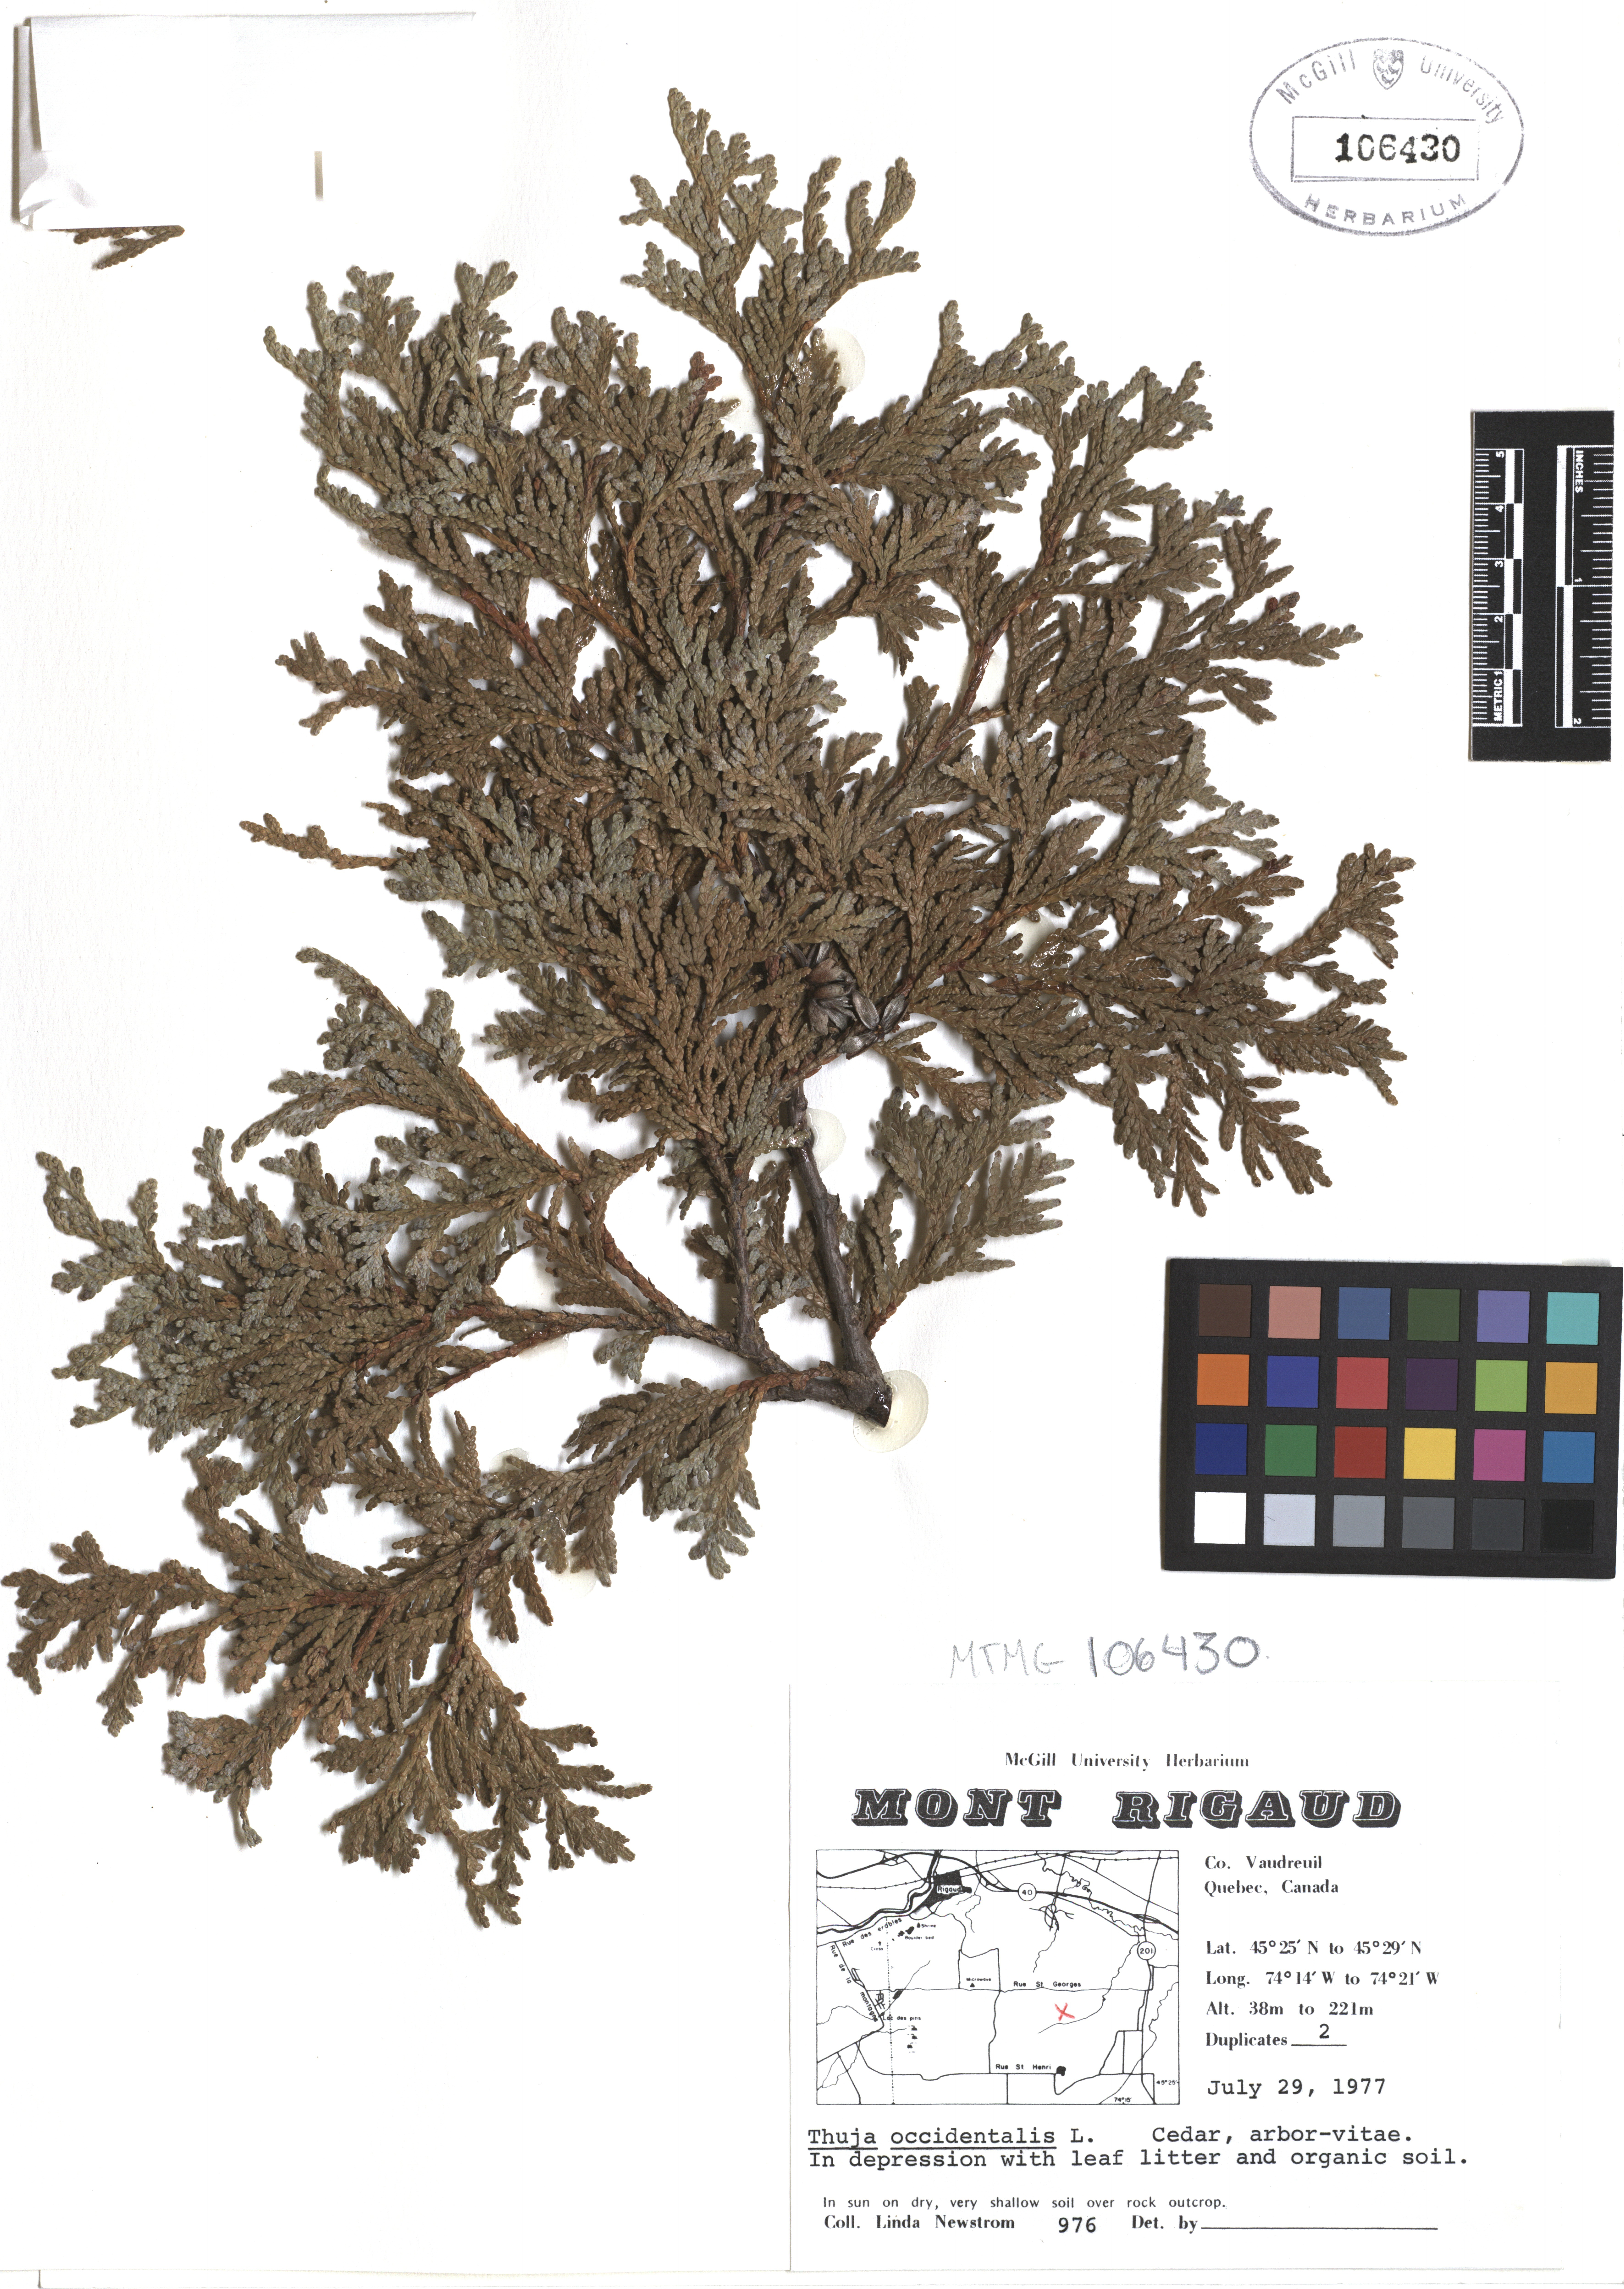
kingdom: Plantae
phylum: Tracheophyta
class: Pinopsida
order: Pinales
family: Cupressaceae
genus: Thuja
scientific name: Thuja occidentalis
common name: Northern white-cedar
